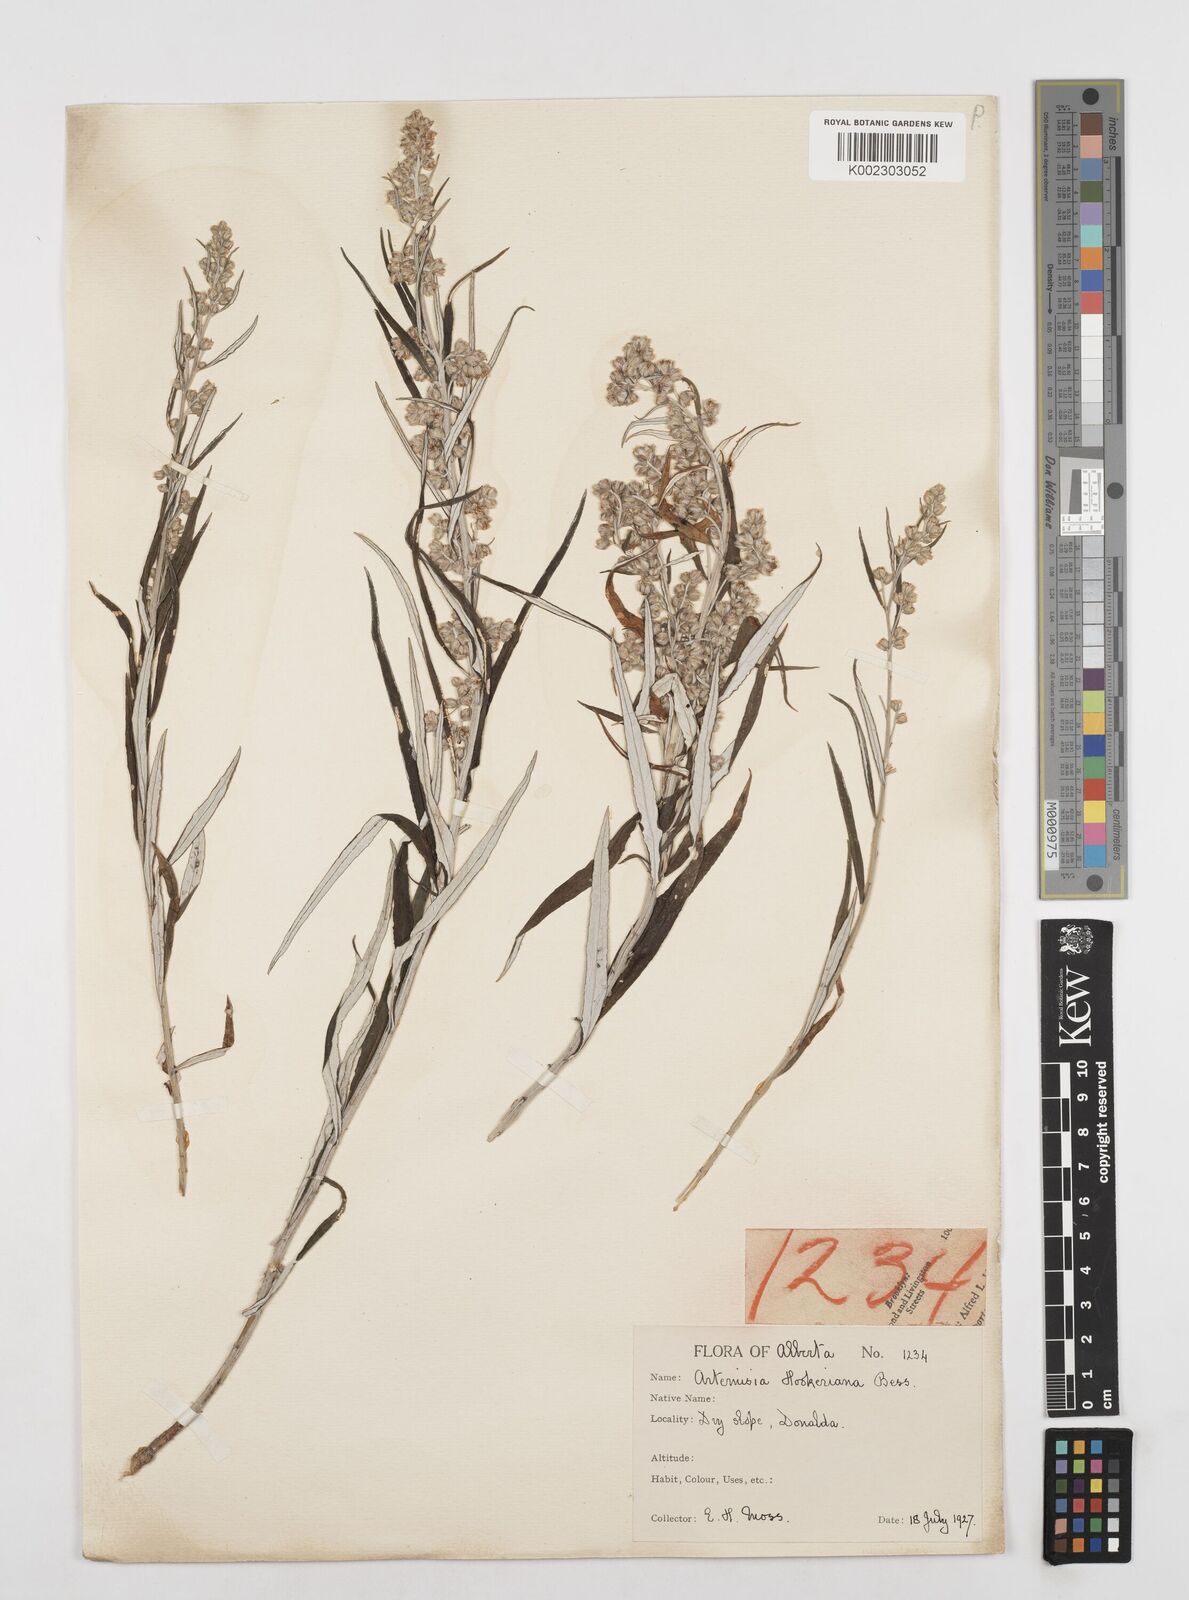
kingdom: Plantae
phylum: Tracheophyta
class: Magnoliopsida
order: Asterales
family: Asteraceae
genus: Artemisia
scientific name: Artemisia tilesii
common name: Aleutian mugwort
